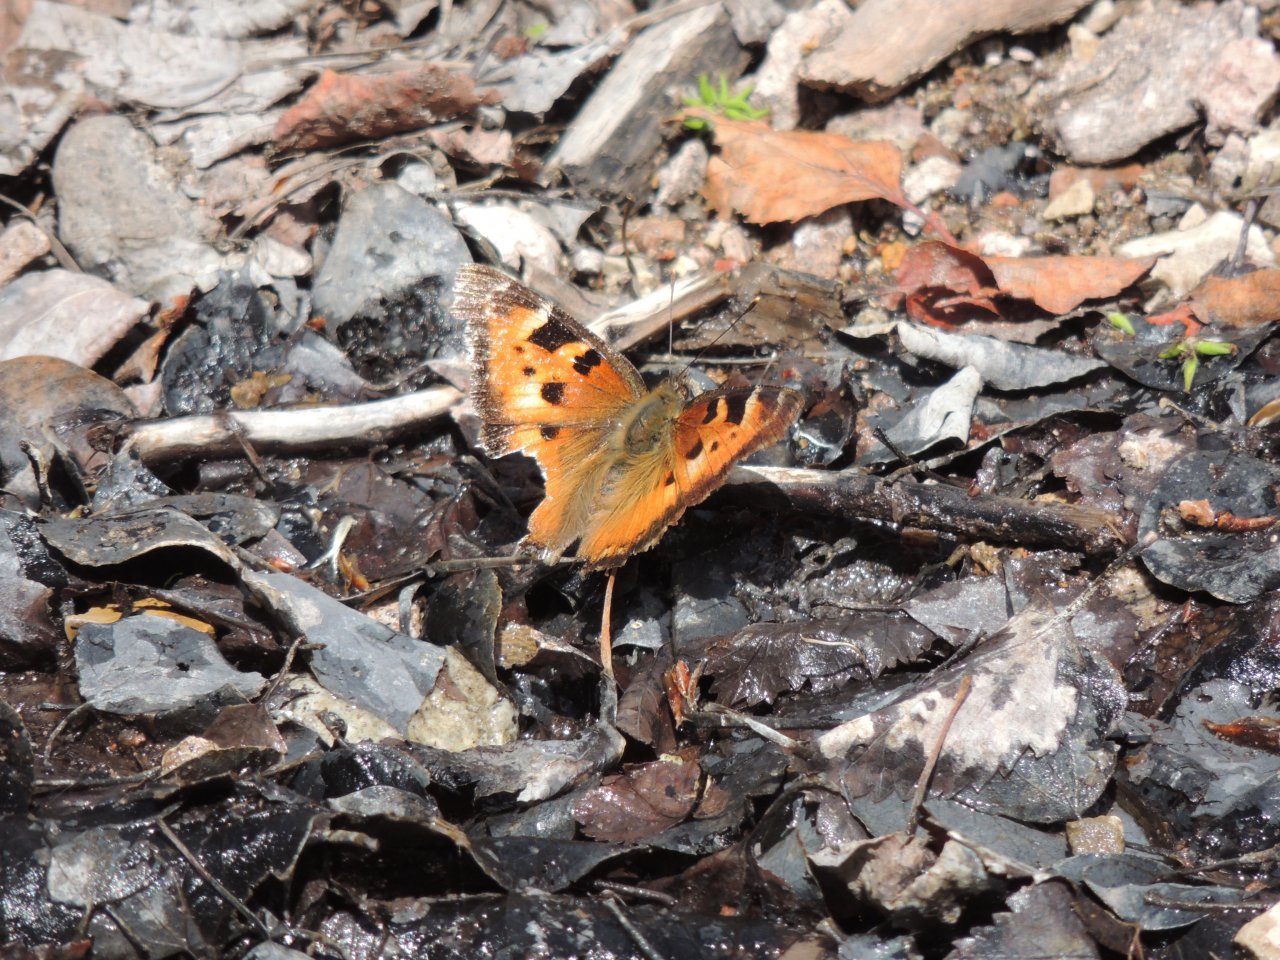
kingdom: Animalia
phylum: Arthropoda
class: Insecta
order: Lepidoptera
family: Nymphalidae
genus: Nymphalis
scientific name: Nymphalis californica
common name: California Tortoiseshell
